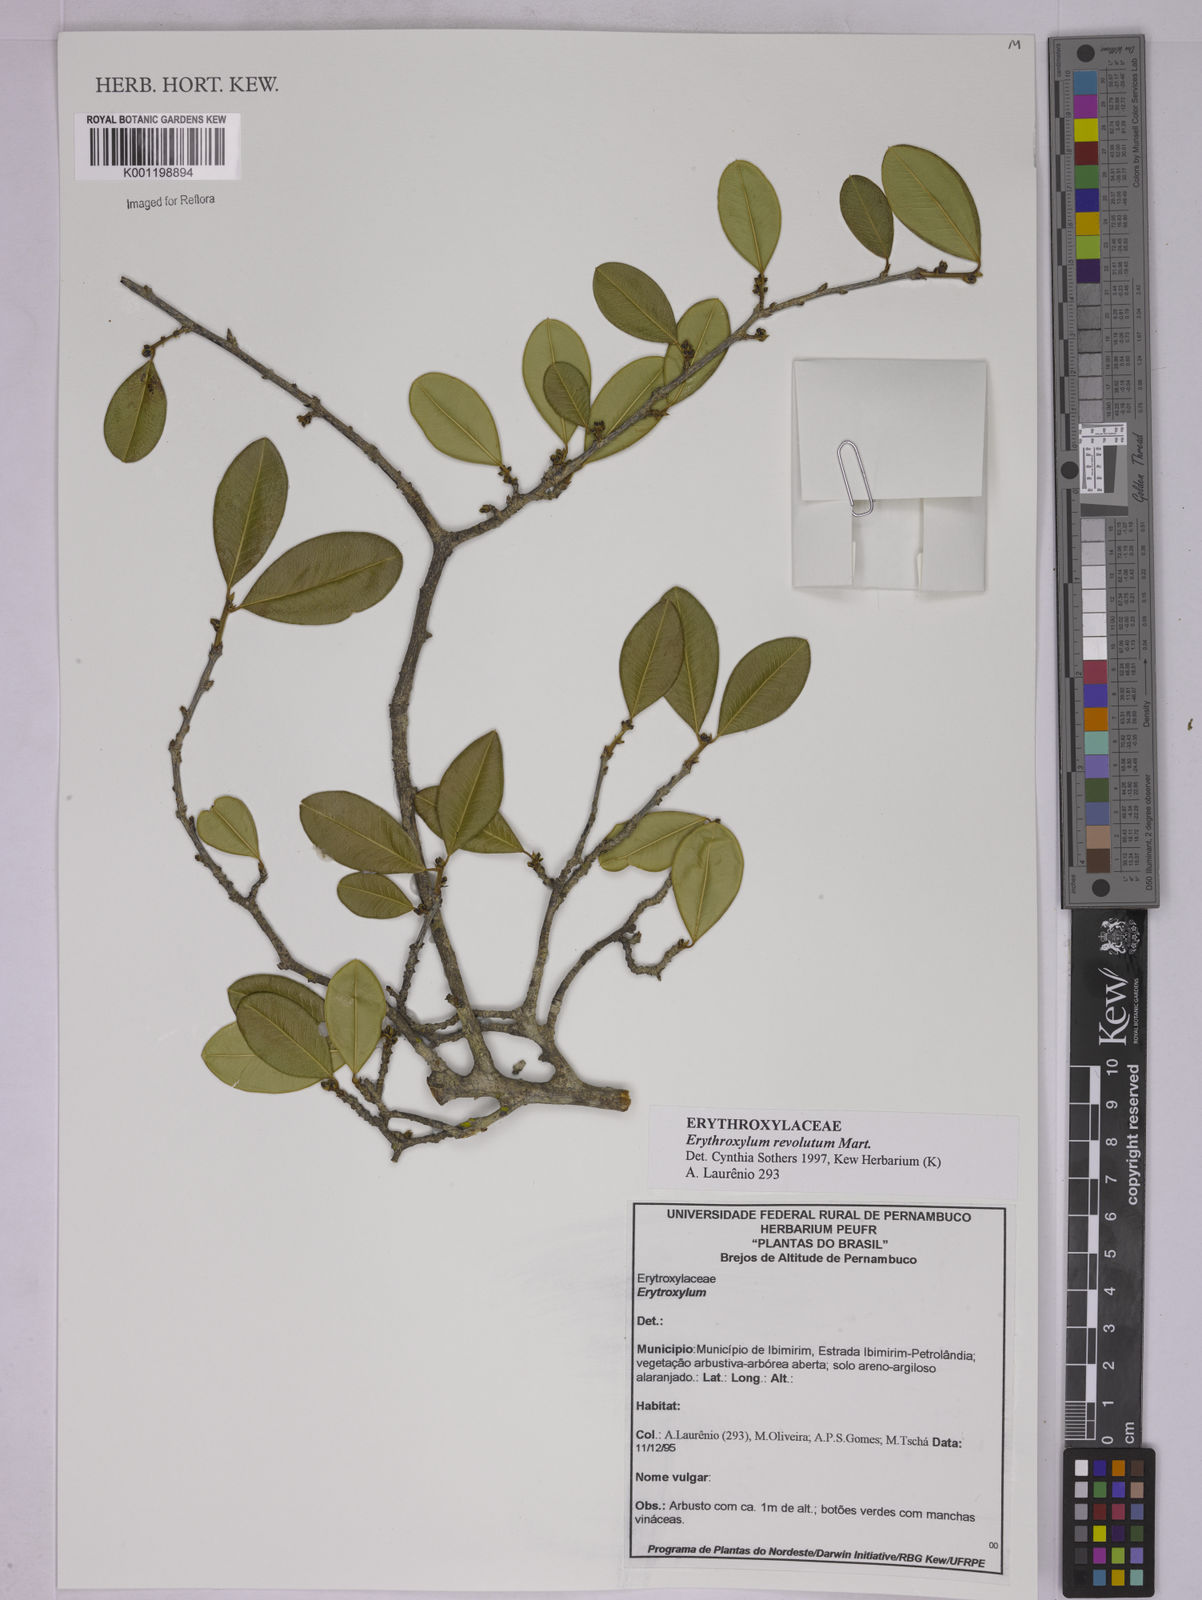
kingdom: Plantae
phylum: Tracheophyta
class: Magnoliopsida
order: Malpighiales
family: Erythroxylaceae
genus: Erythroxylum
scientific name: Erythroxylum revolutum
